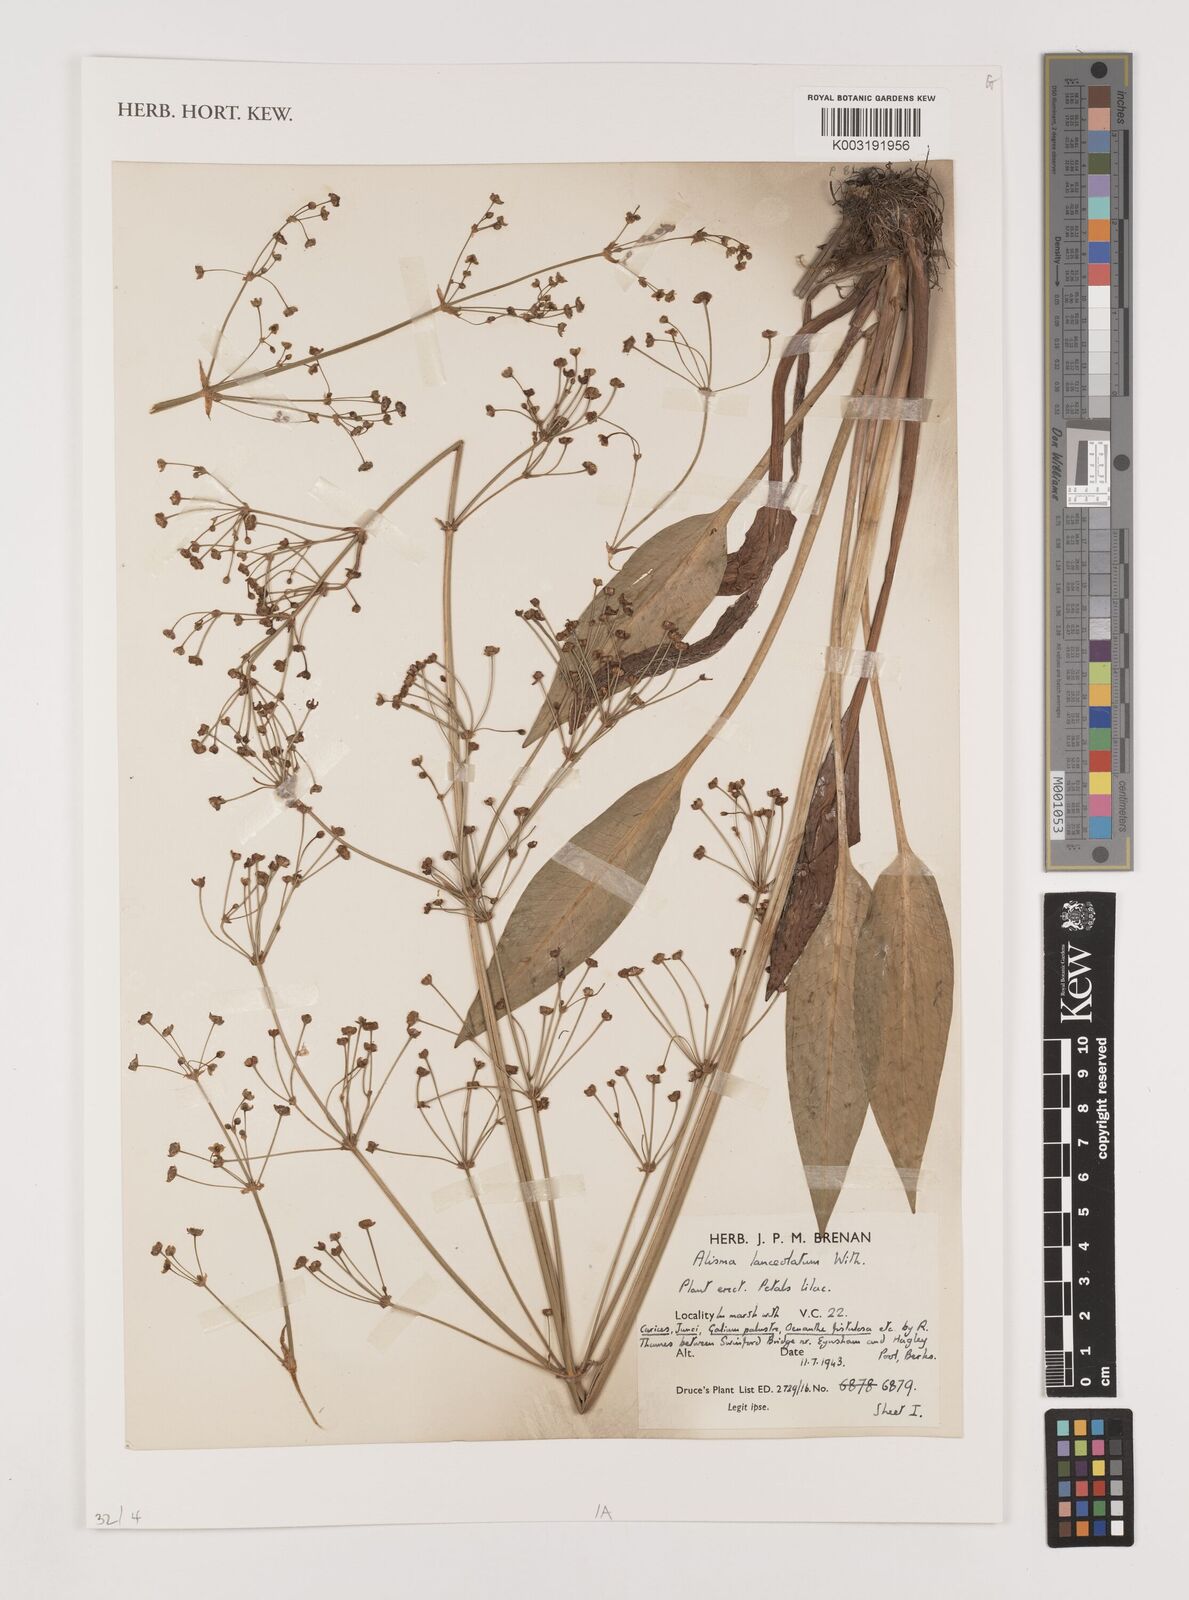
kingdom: Plantae
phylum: Tracheophyta
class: Liliopsida
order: Alismatales
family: Alismataceae
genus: Alisma
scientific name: Alisma lanceolatum
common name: Narrow-leaved water-plantain
